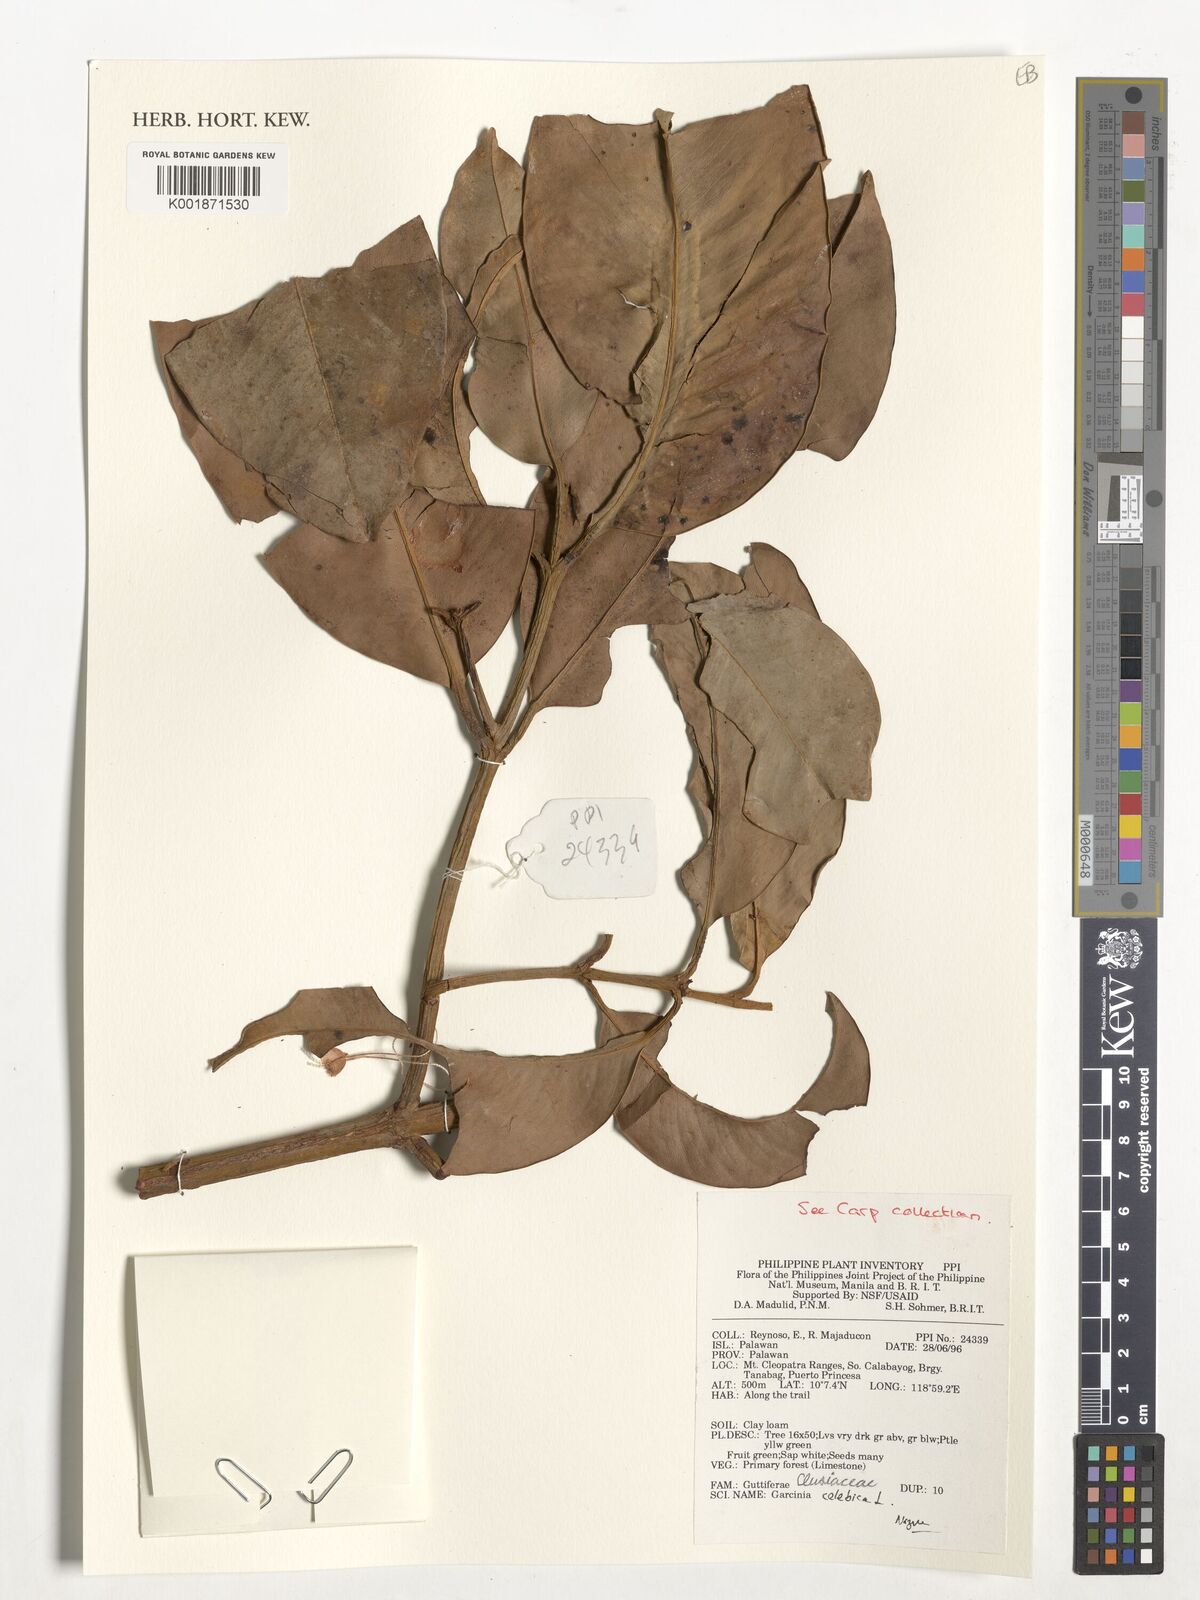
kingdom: Plantae
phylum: Tracheophyta
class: Magnoliopsida
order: Malpighiales
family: Clusiaceae
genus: Garcinia
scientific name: Garcinia celebica
